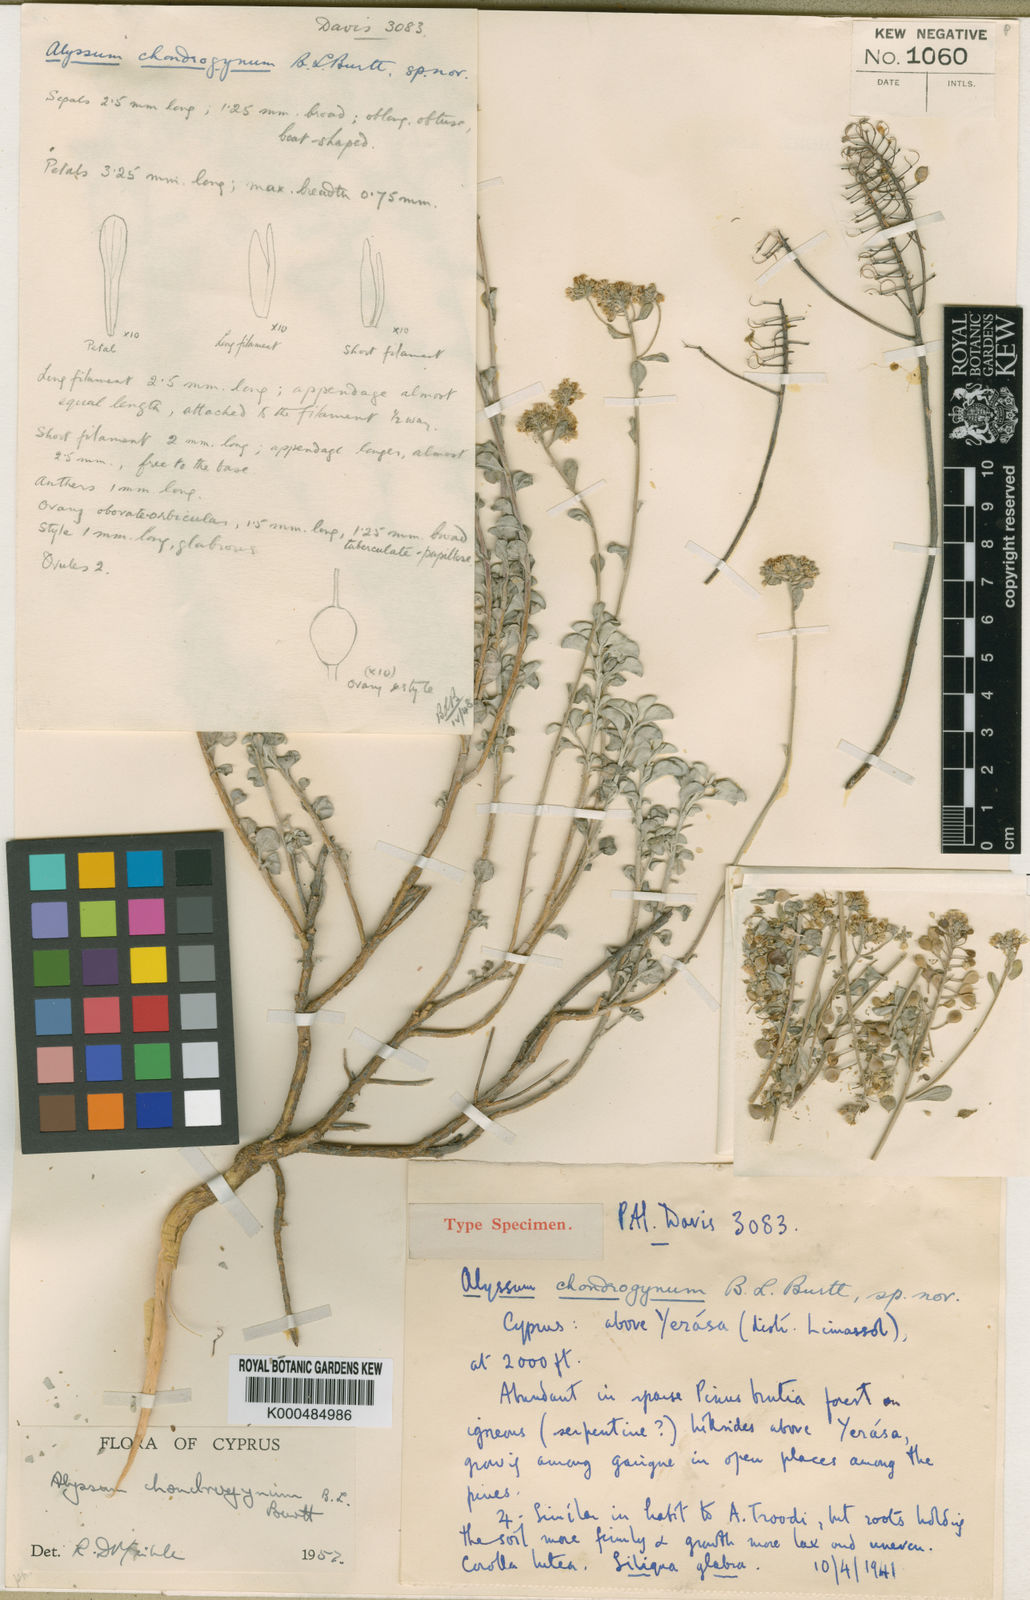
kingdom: Plantae
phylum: Tracheophyta
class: Magnoliopsida
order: Brassicales
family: Brassicaceae
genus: Odontarrhena
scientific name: Odontarrhena chondrogyna
